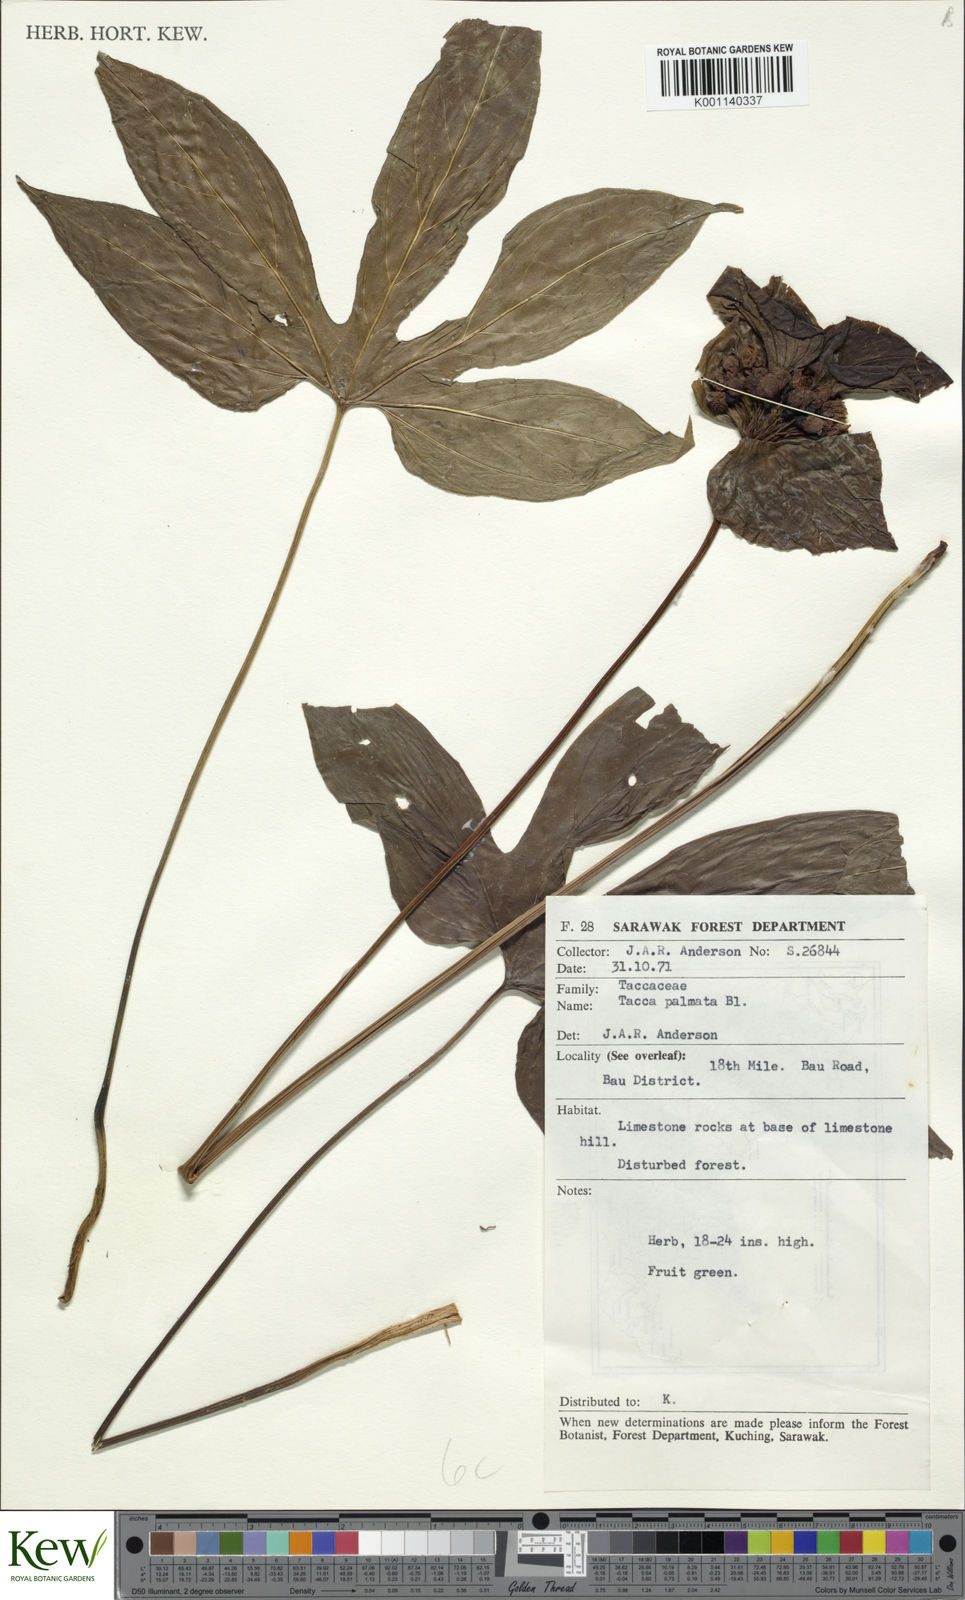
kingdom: Plantae
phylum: Tracheophyta
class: Liliopsida
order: Dioscoreales
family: Dioscoreaceae
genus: Tacca
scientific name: Tacca palmata
